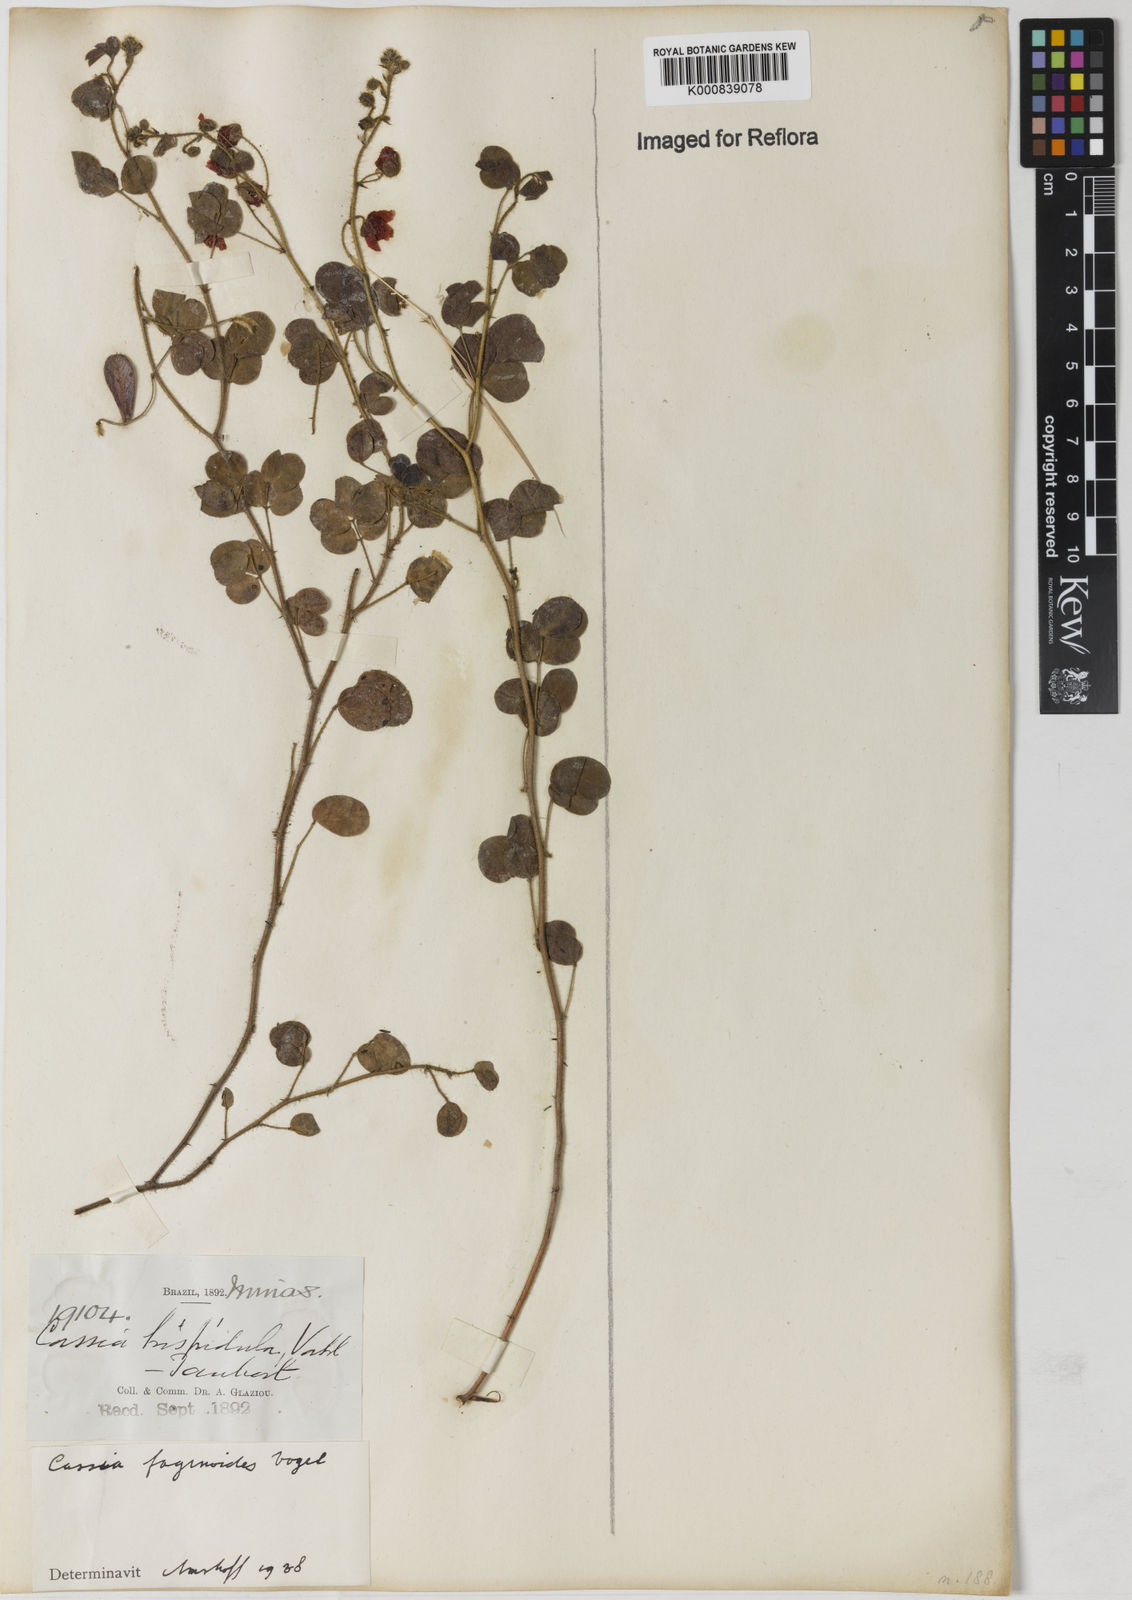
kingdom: Plantae
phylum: Tracheophyta
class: Magnoliopsida
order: Fabales
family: Fabaceae
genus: Chamaecrista
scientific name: Chamaecrista fagonioides
